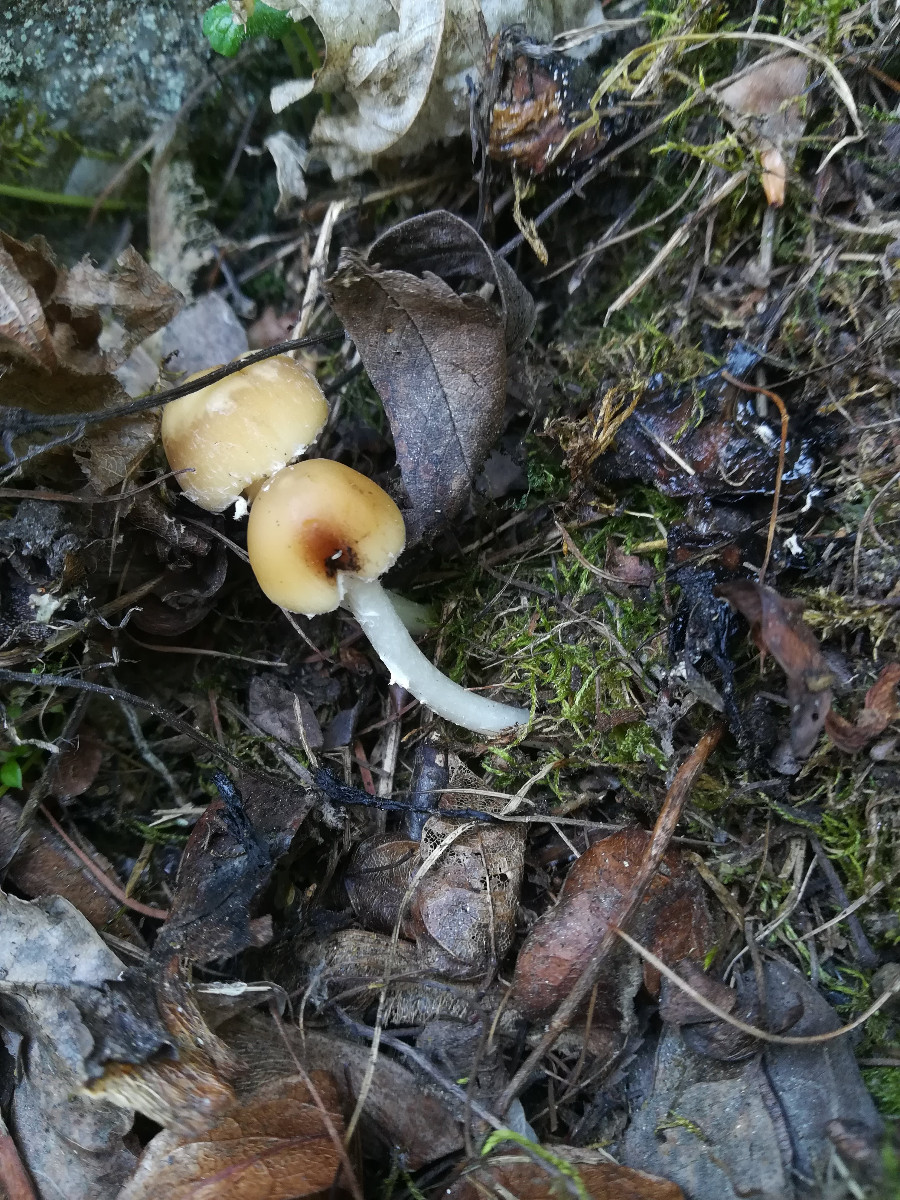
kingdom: Fungi
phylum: Basidiomycota
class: Agaricomycetes
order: Agaricales
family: Psathyrellaceae
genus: Psathyrella
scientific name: Psathyrella
